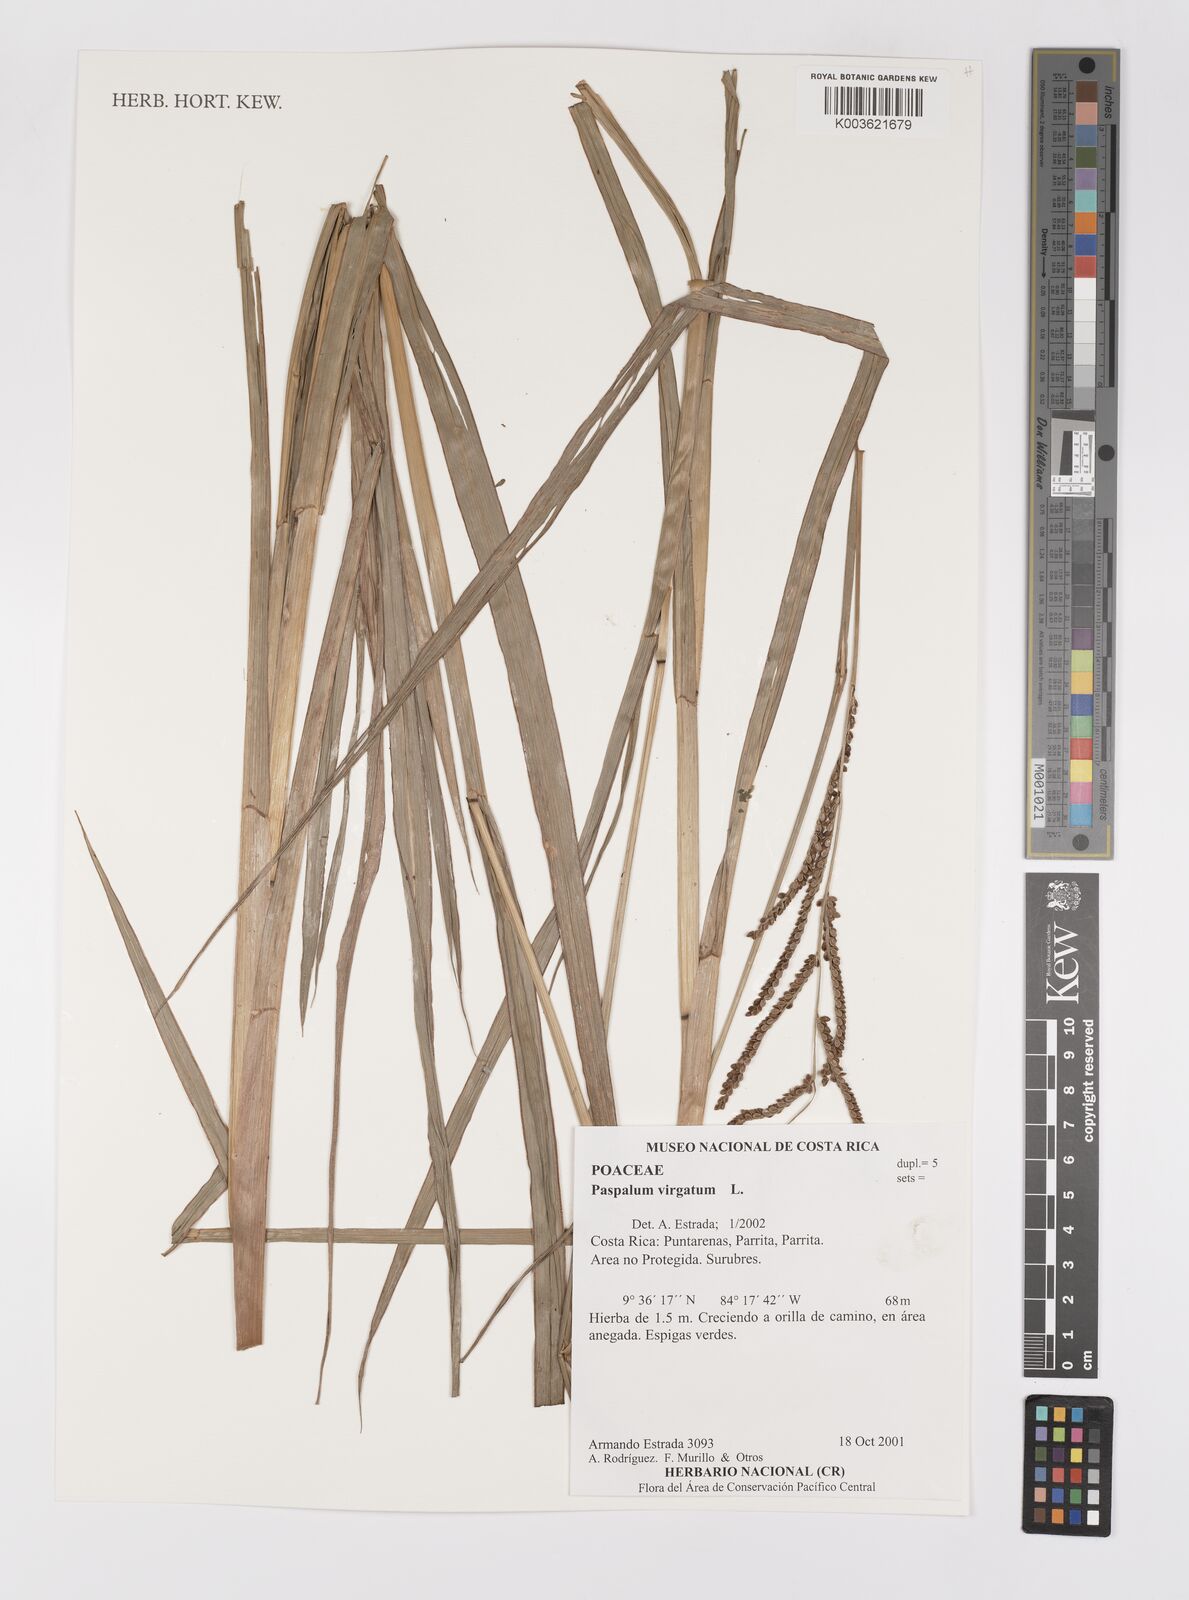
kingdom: Plantae
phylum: Tracheophyta
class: Liliopsida
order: Poales
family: Poaceae
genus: Paspalum
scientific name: Paspalum virgatum
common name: Talquezal
